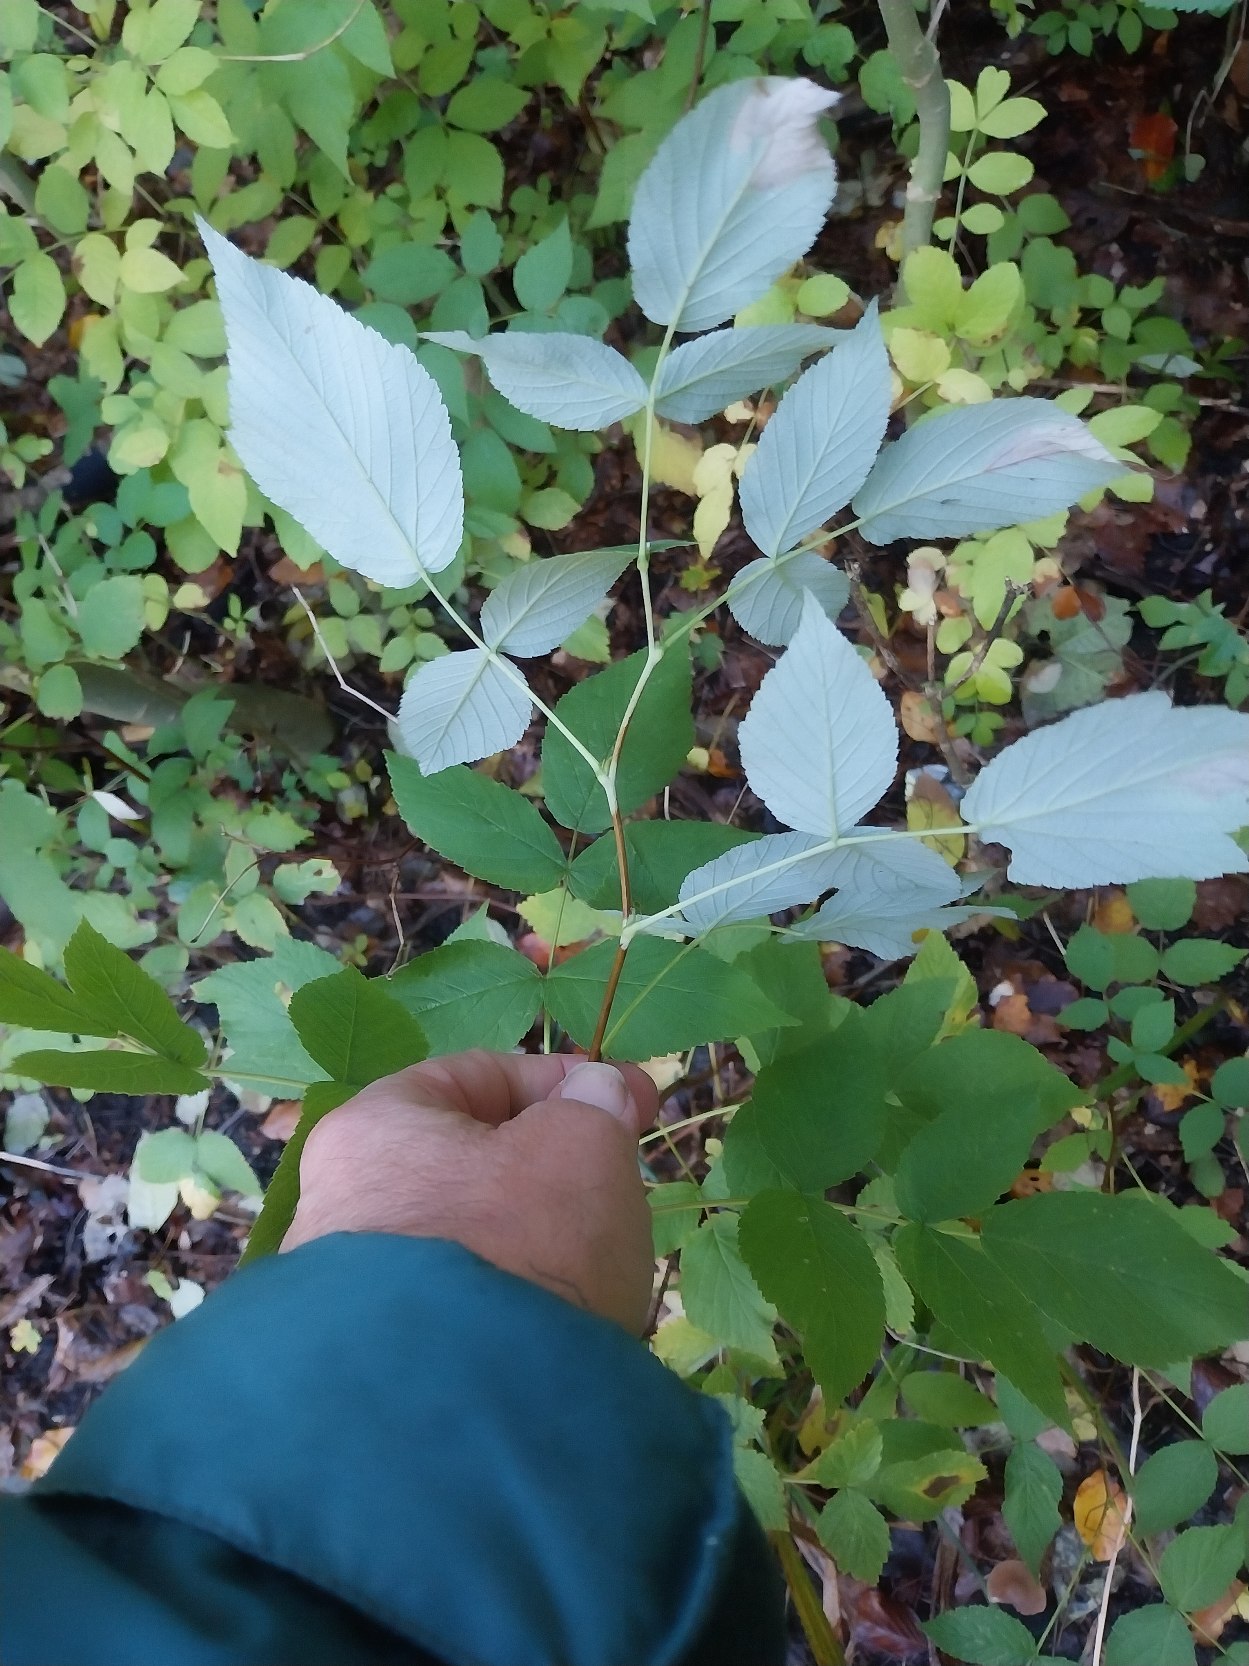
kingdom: Plantae
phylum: Tracheophyta
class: Magnoliopsida
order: Rosales
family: Rosaceae
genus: Rubus
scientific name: Rubus idaeus
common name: Hindbær
